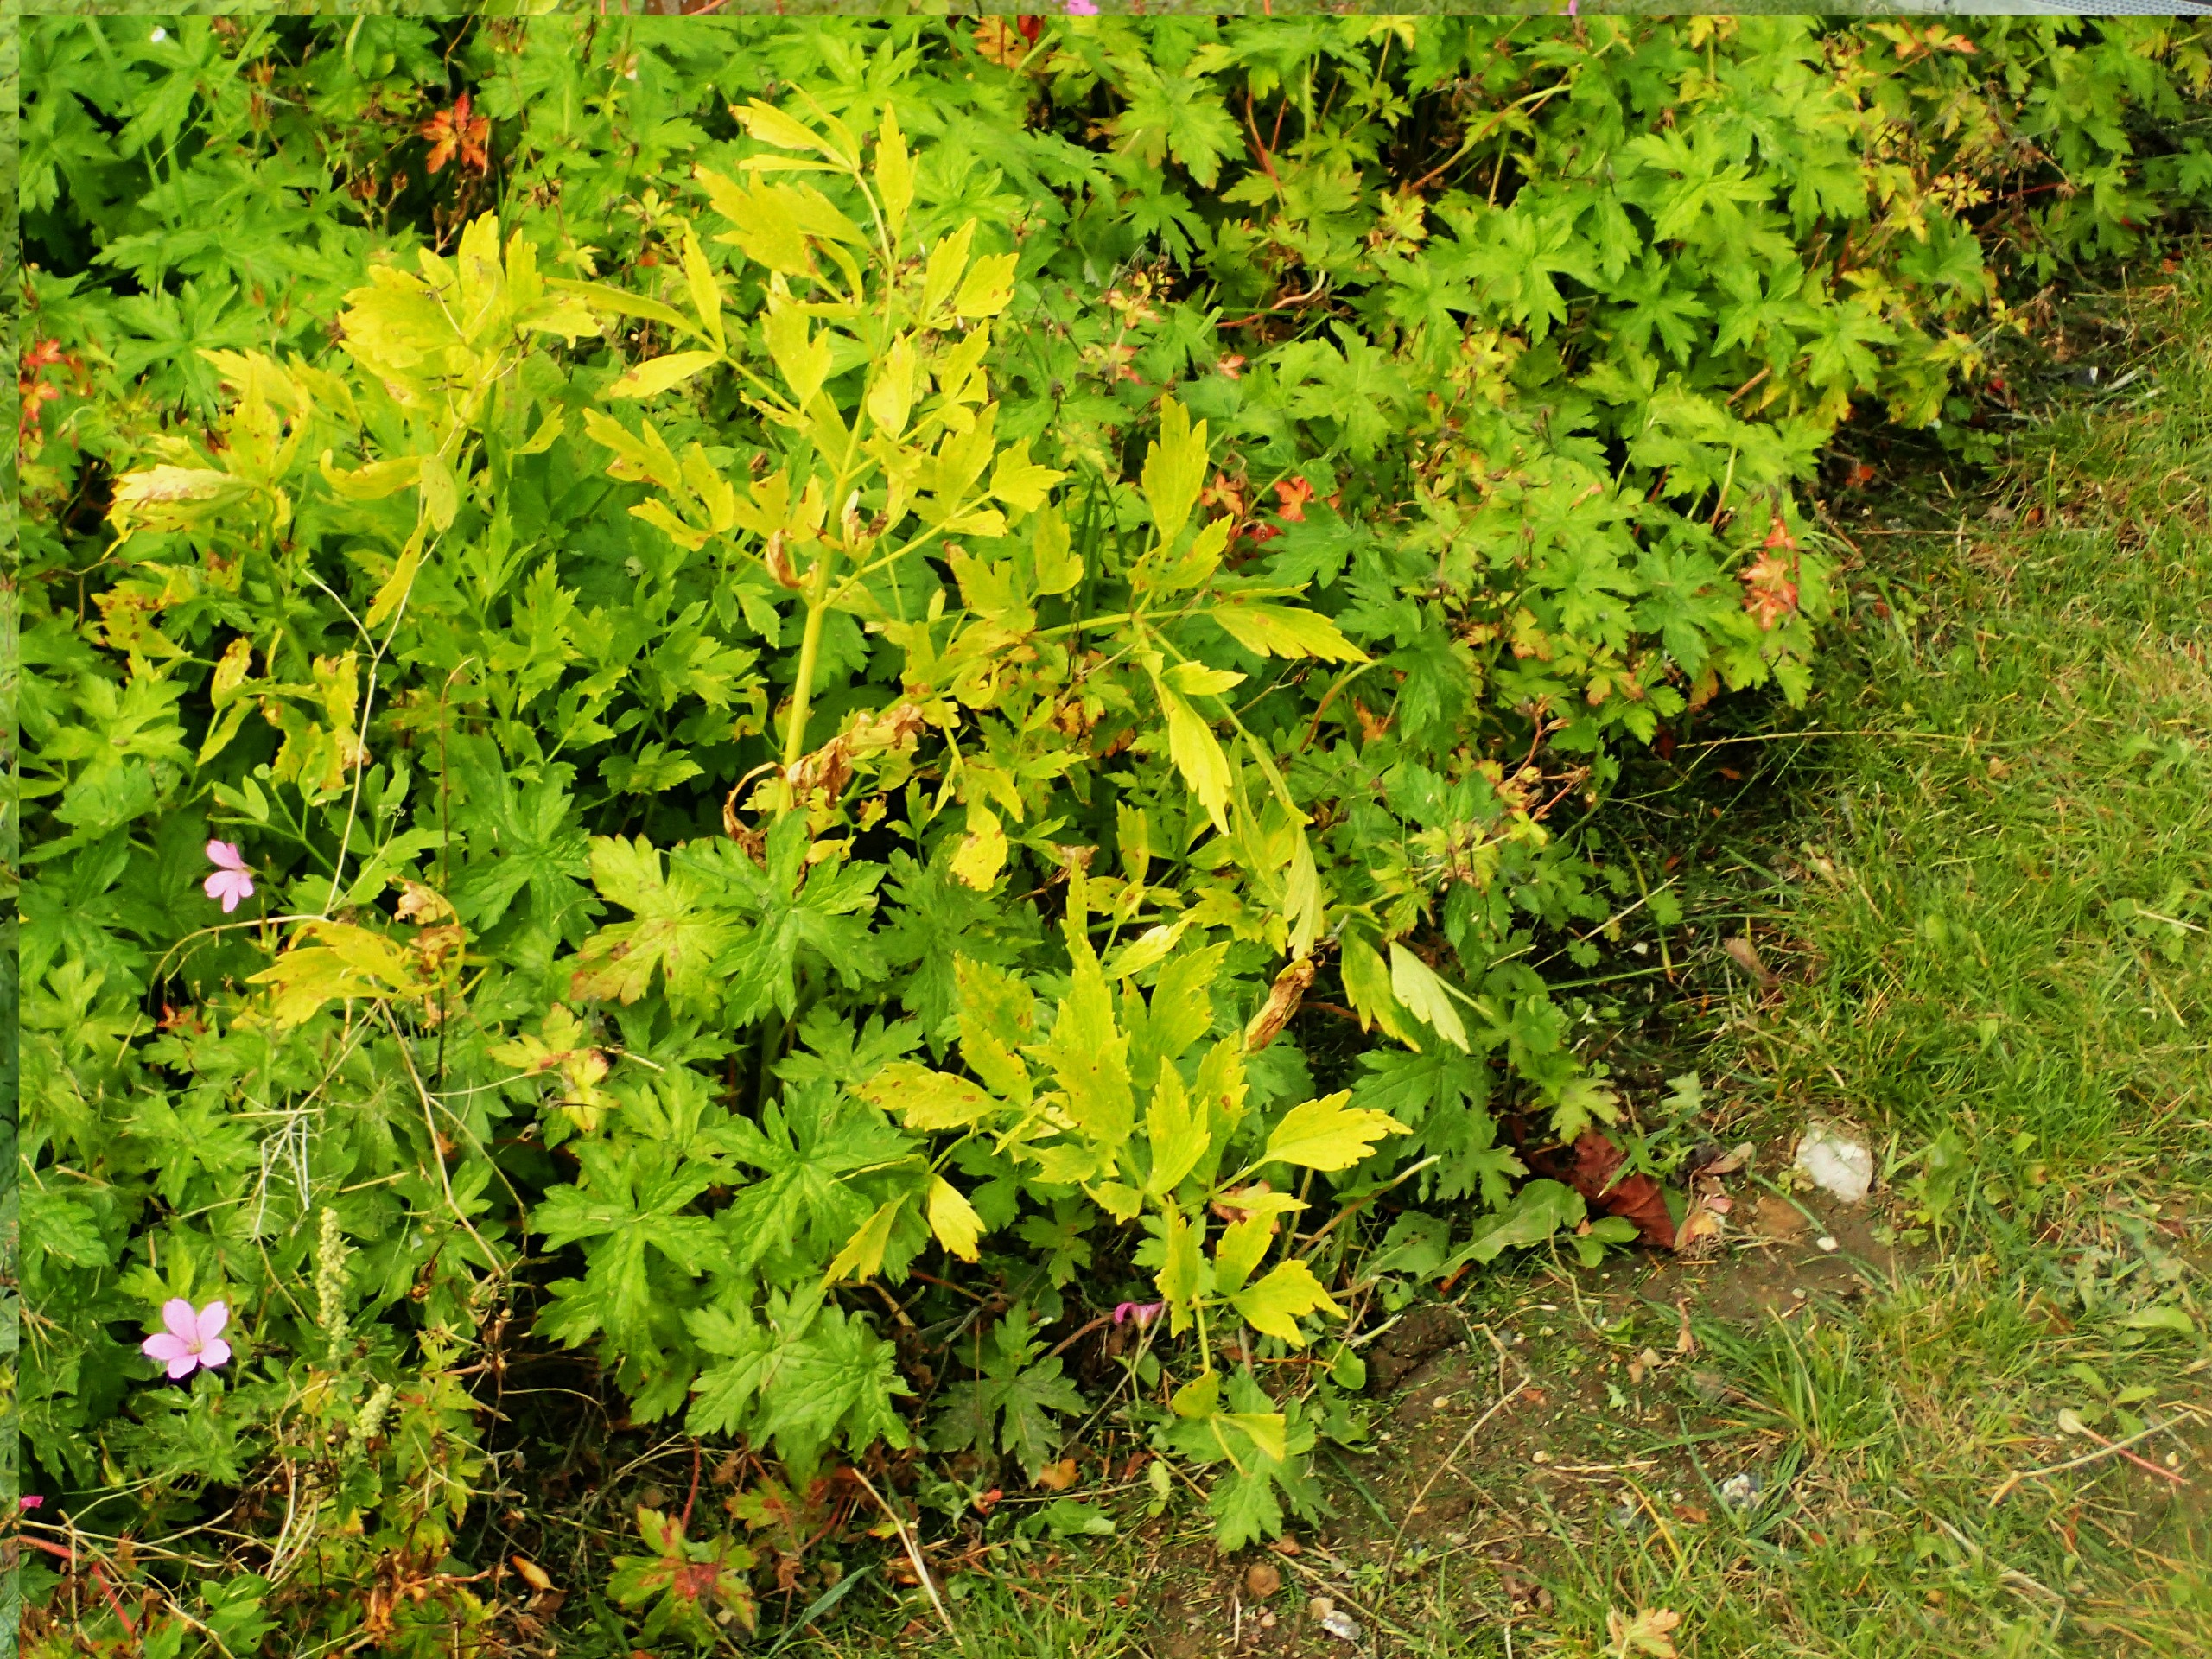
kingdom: Plantae
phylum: Tracheophyta
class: Magnoliopsida
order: Apiales
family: Apiaceae
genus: Levisticum
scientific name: Levisticum officinale
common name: Løvstikke
